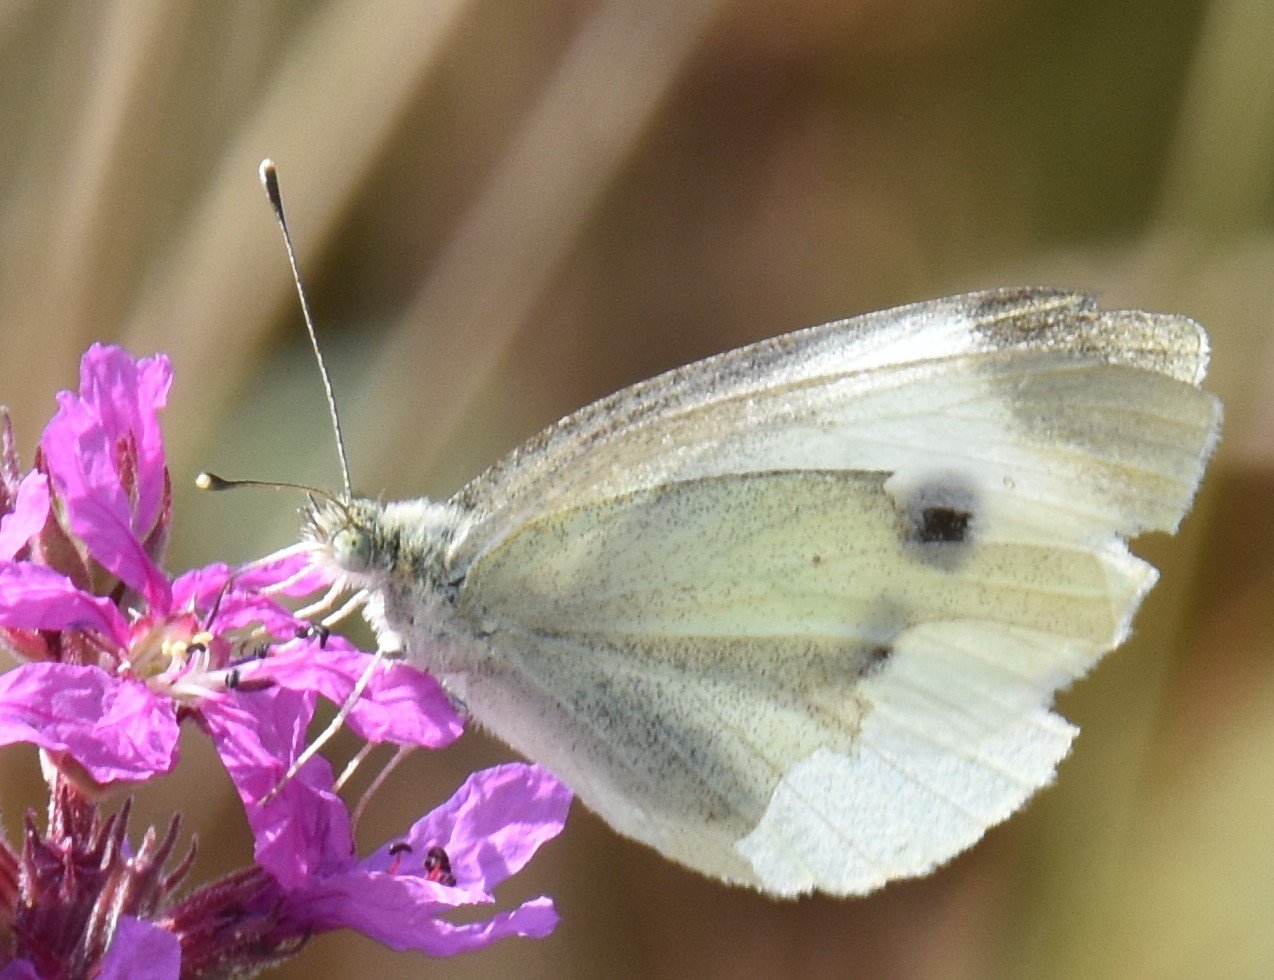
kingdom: Animalia
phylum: Arthropoda
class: Insecta
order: Lepidoptera
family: Pieridae
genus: Pieris
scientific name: Pieris rapae
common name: Cabbage White
